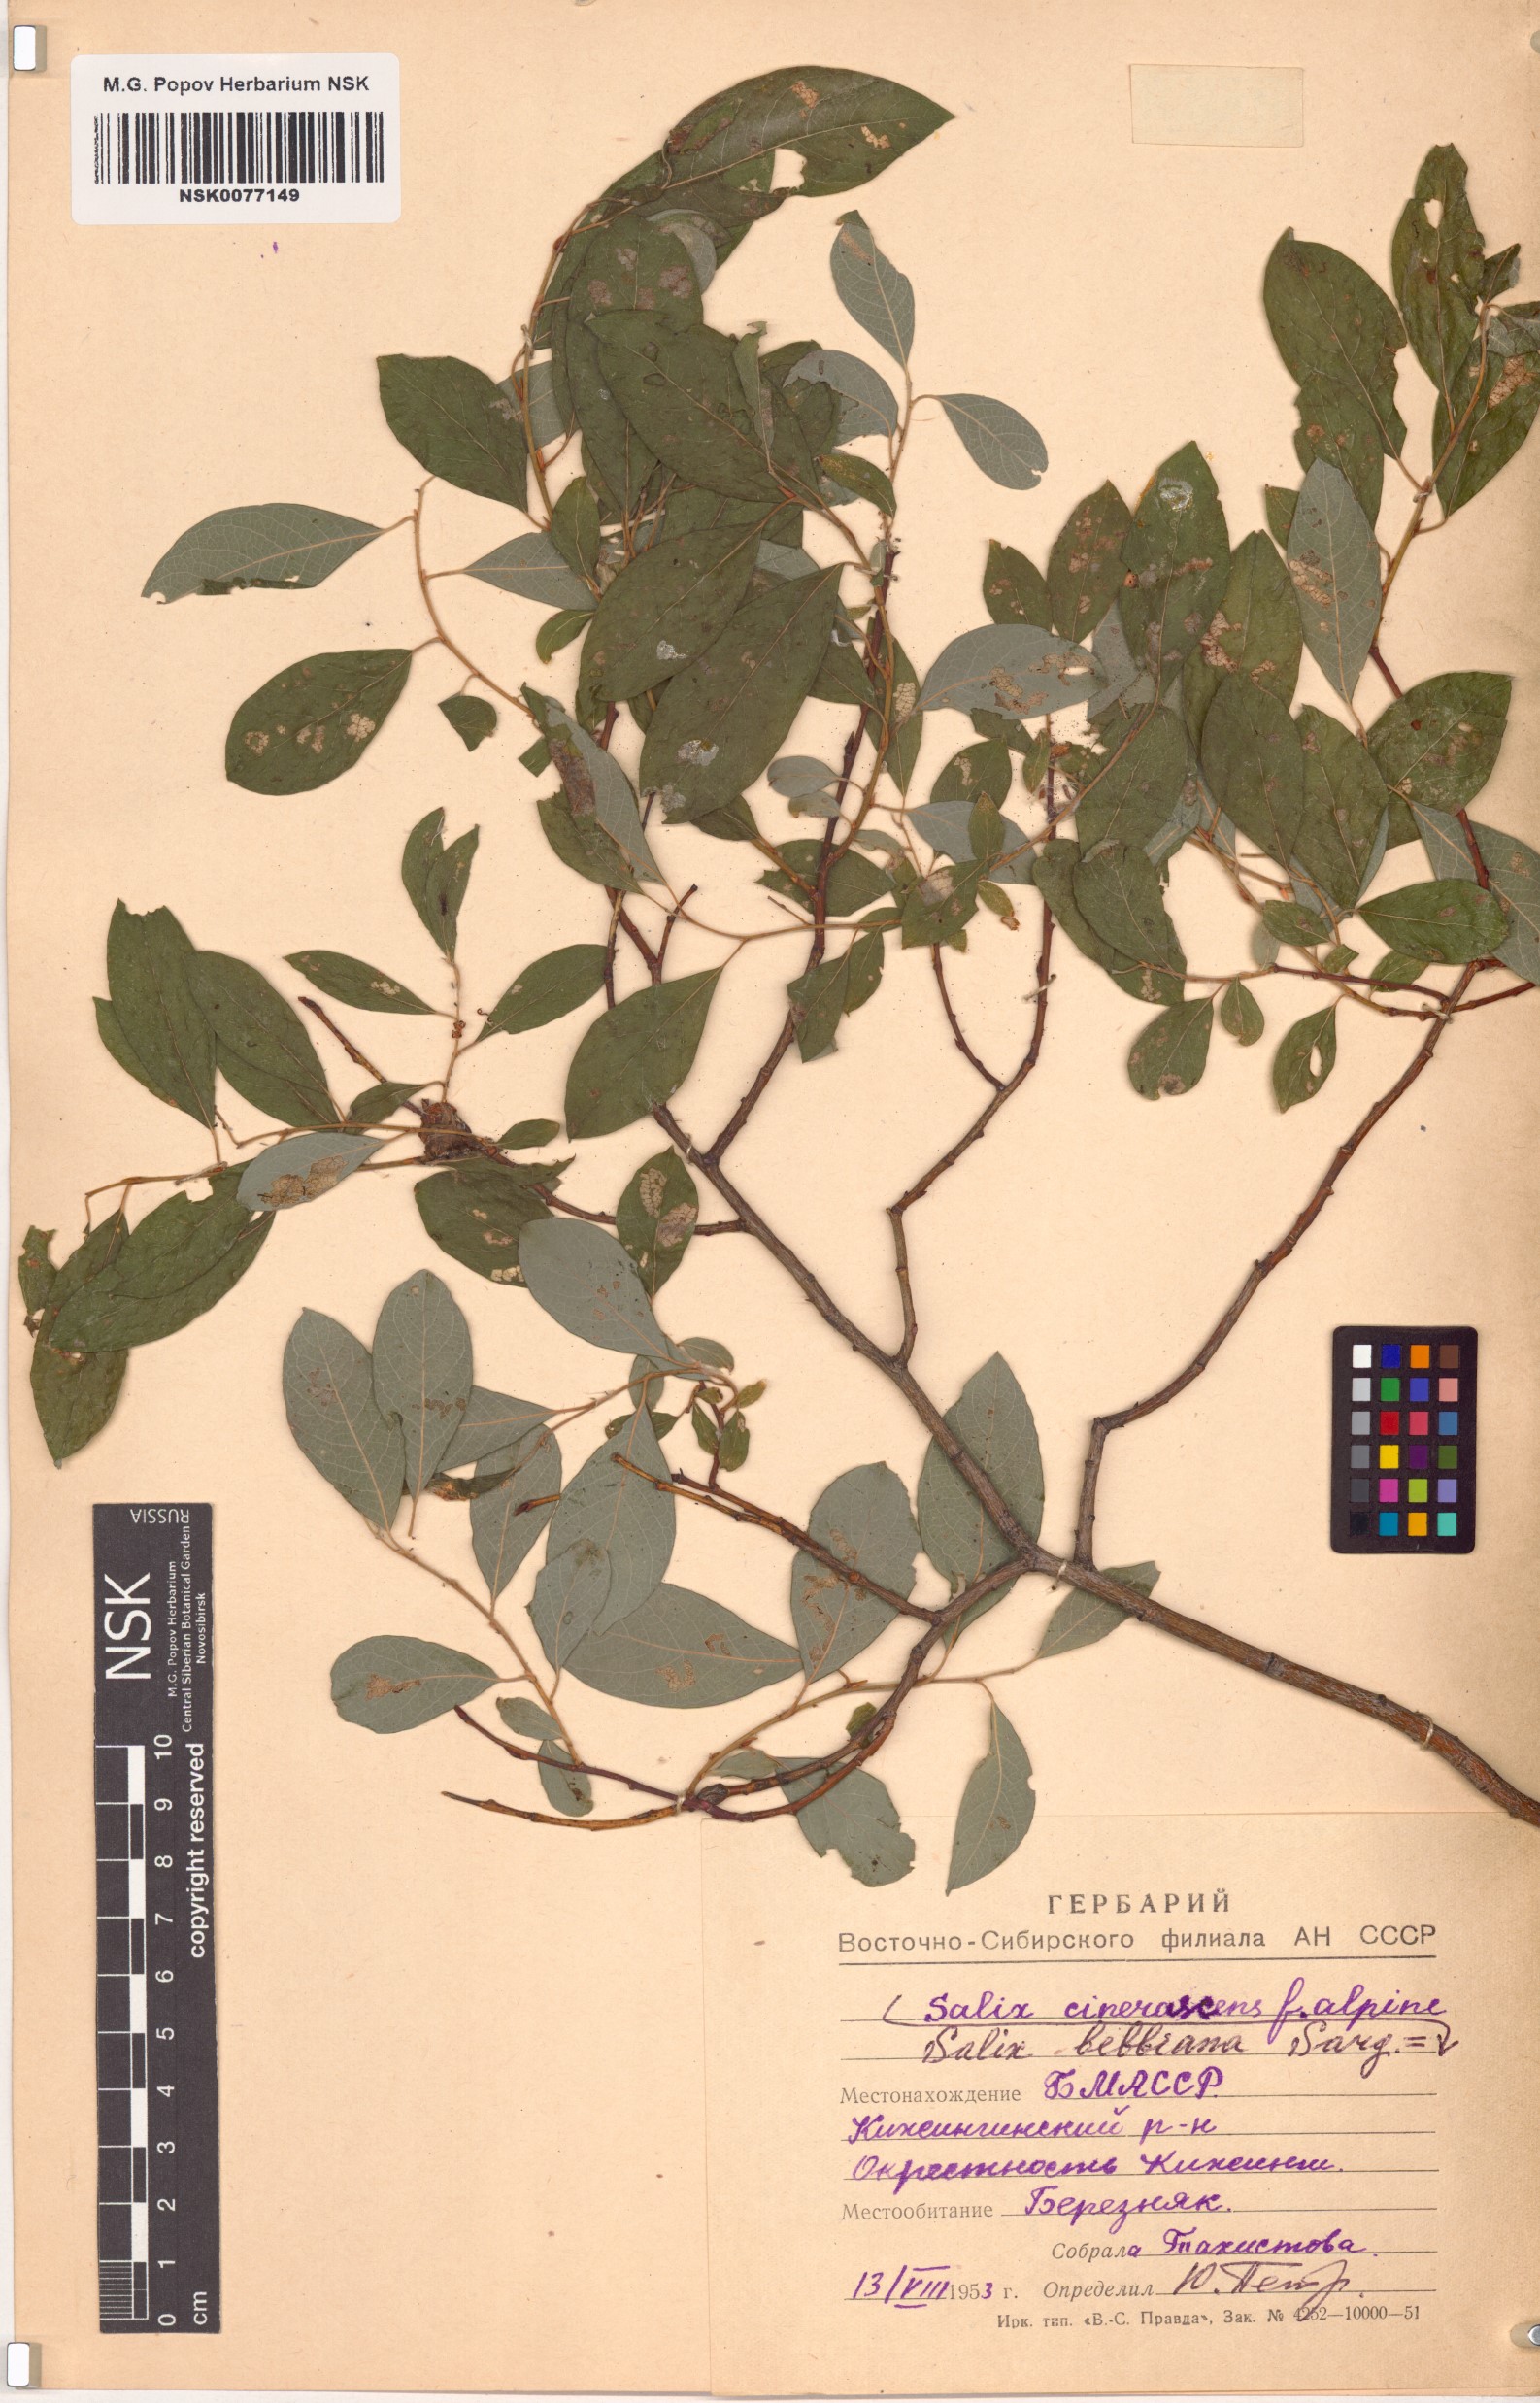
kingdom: Plantae
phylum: Tracheophyta
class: Magnoliopsida
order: Malpighiales
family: Salicaceae
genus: Salix
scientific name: Salix bebbiana
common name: Bebb's willow
